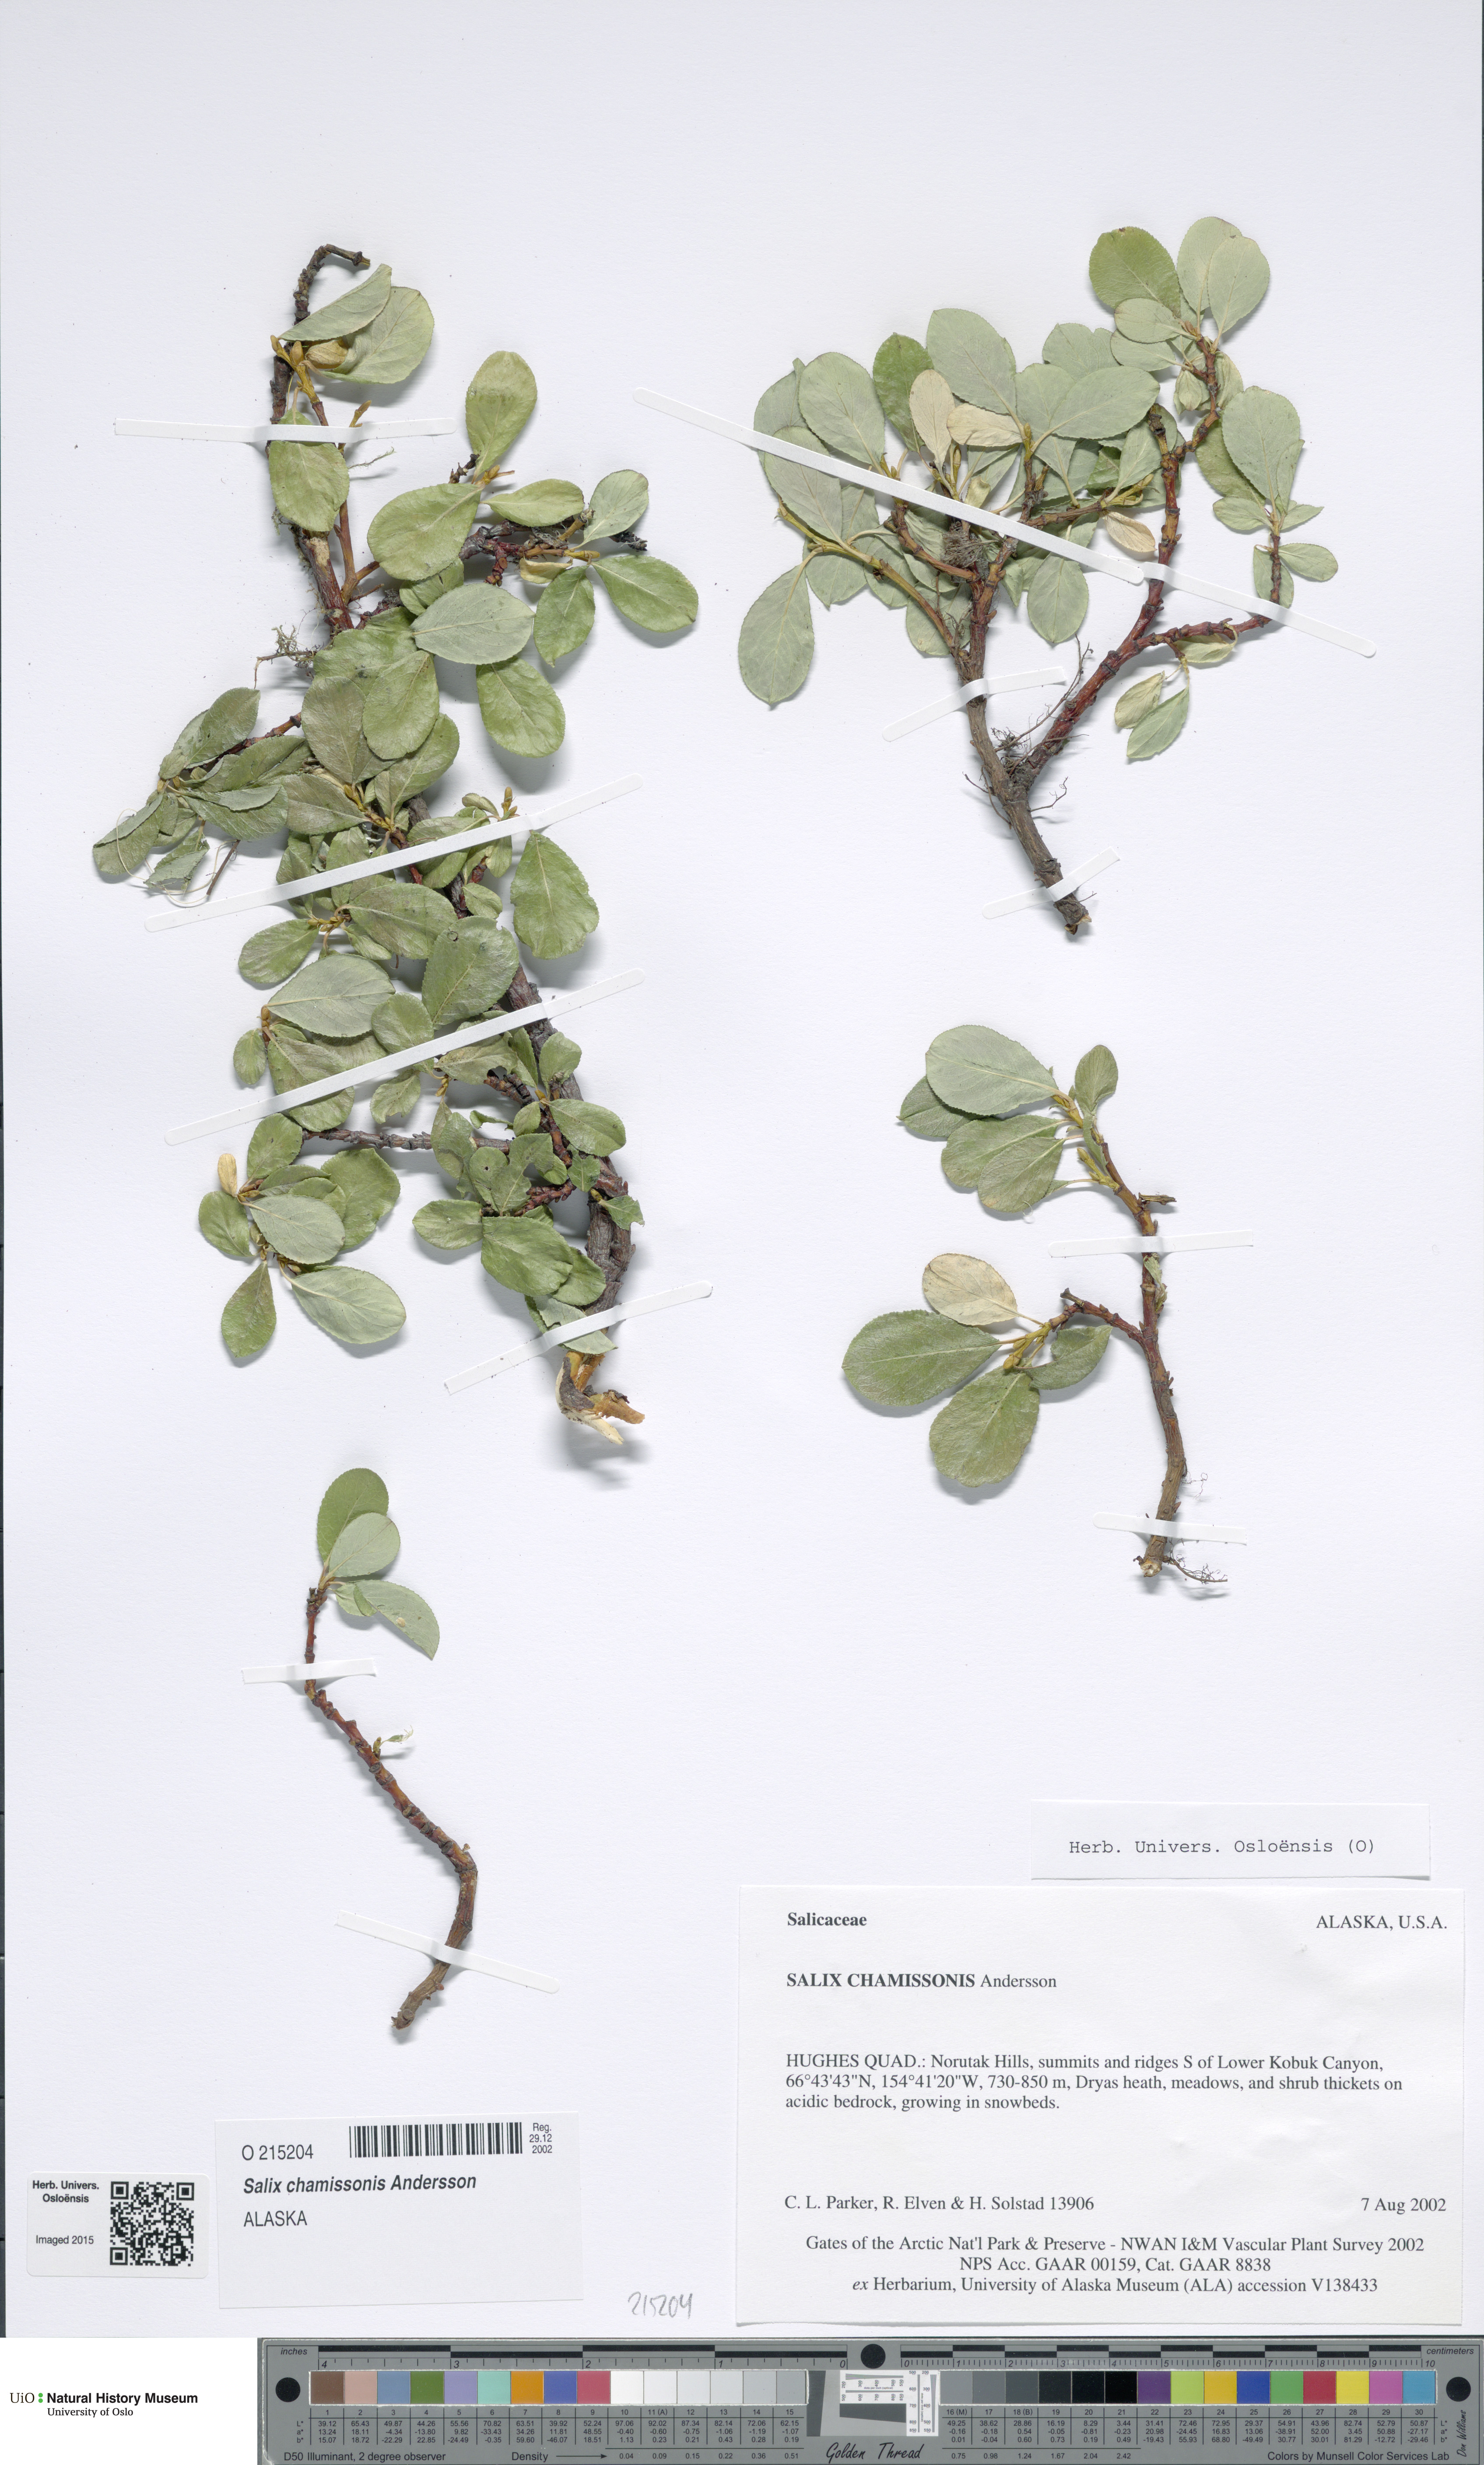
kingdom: Plantae
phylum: Tracheophyta
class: Magnoliopsida
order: Malpighiales
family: Salicaceae
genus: Salix
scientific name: Salix chamissonis
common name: Chamisso willow
